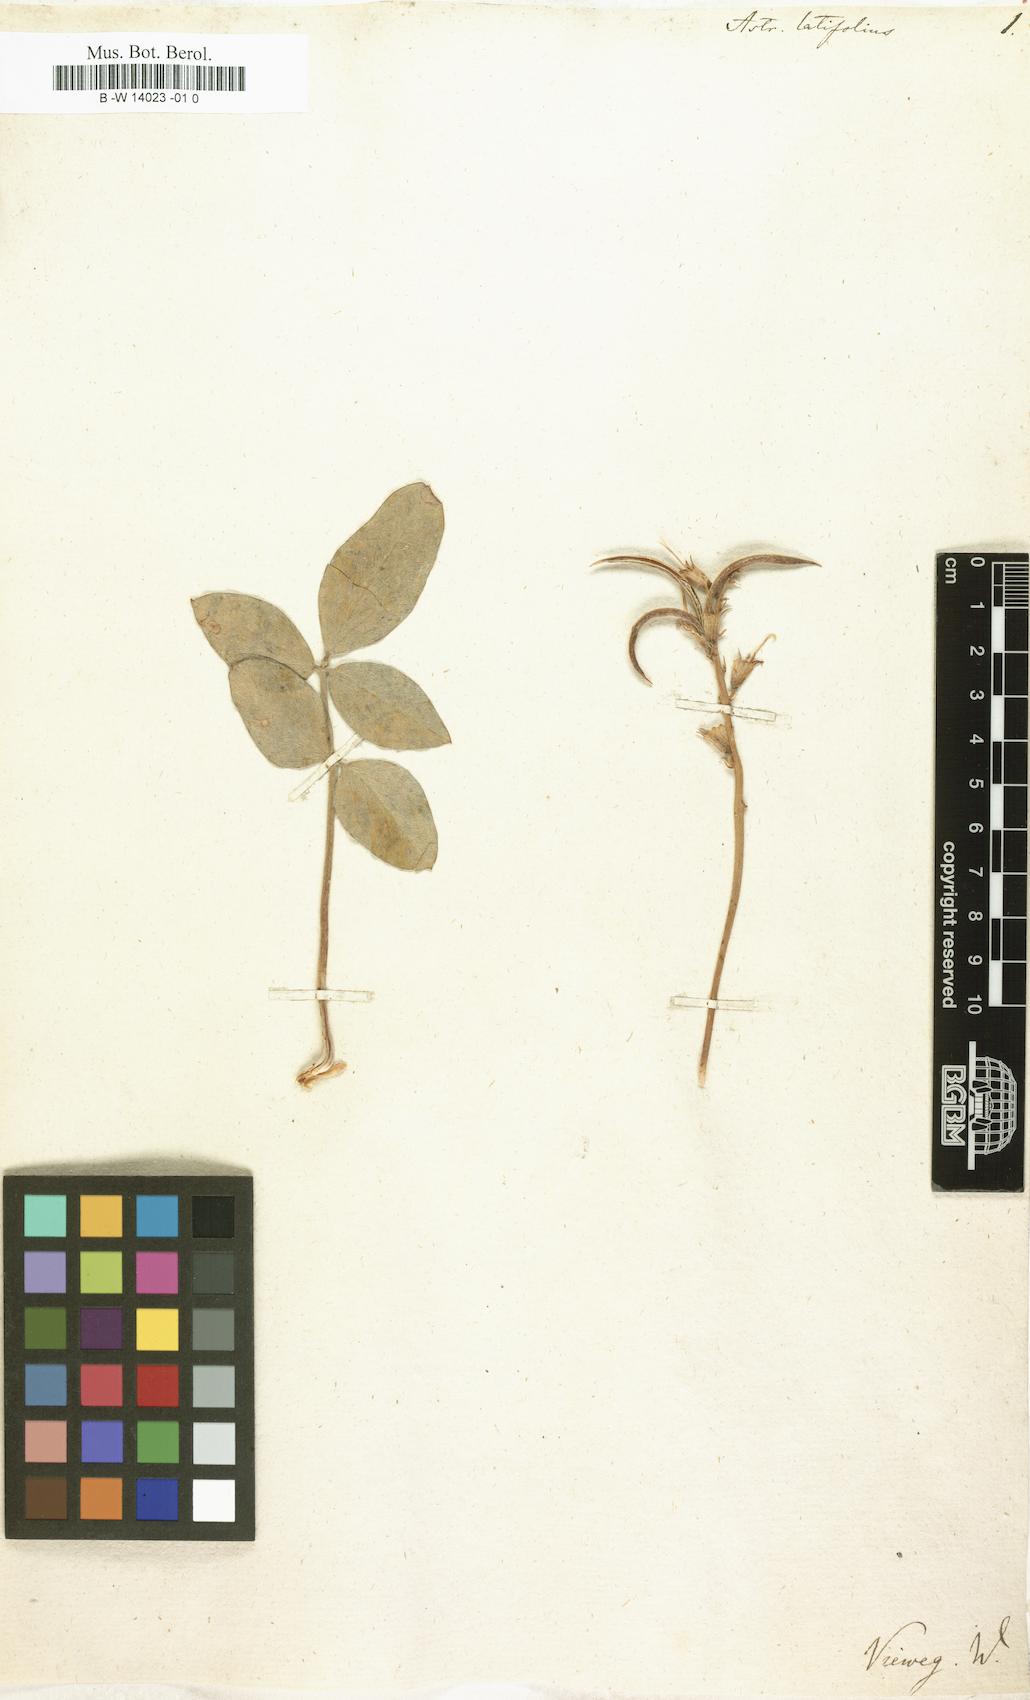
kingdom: Plantae
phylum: Tracheophyta
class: Magnoliopsida
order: Fabales
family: Fabaceae
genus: Astragalus
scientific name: Astragalus latifolius
